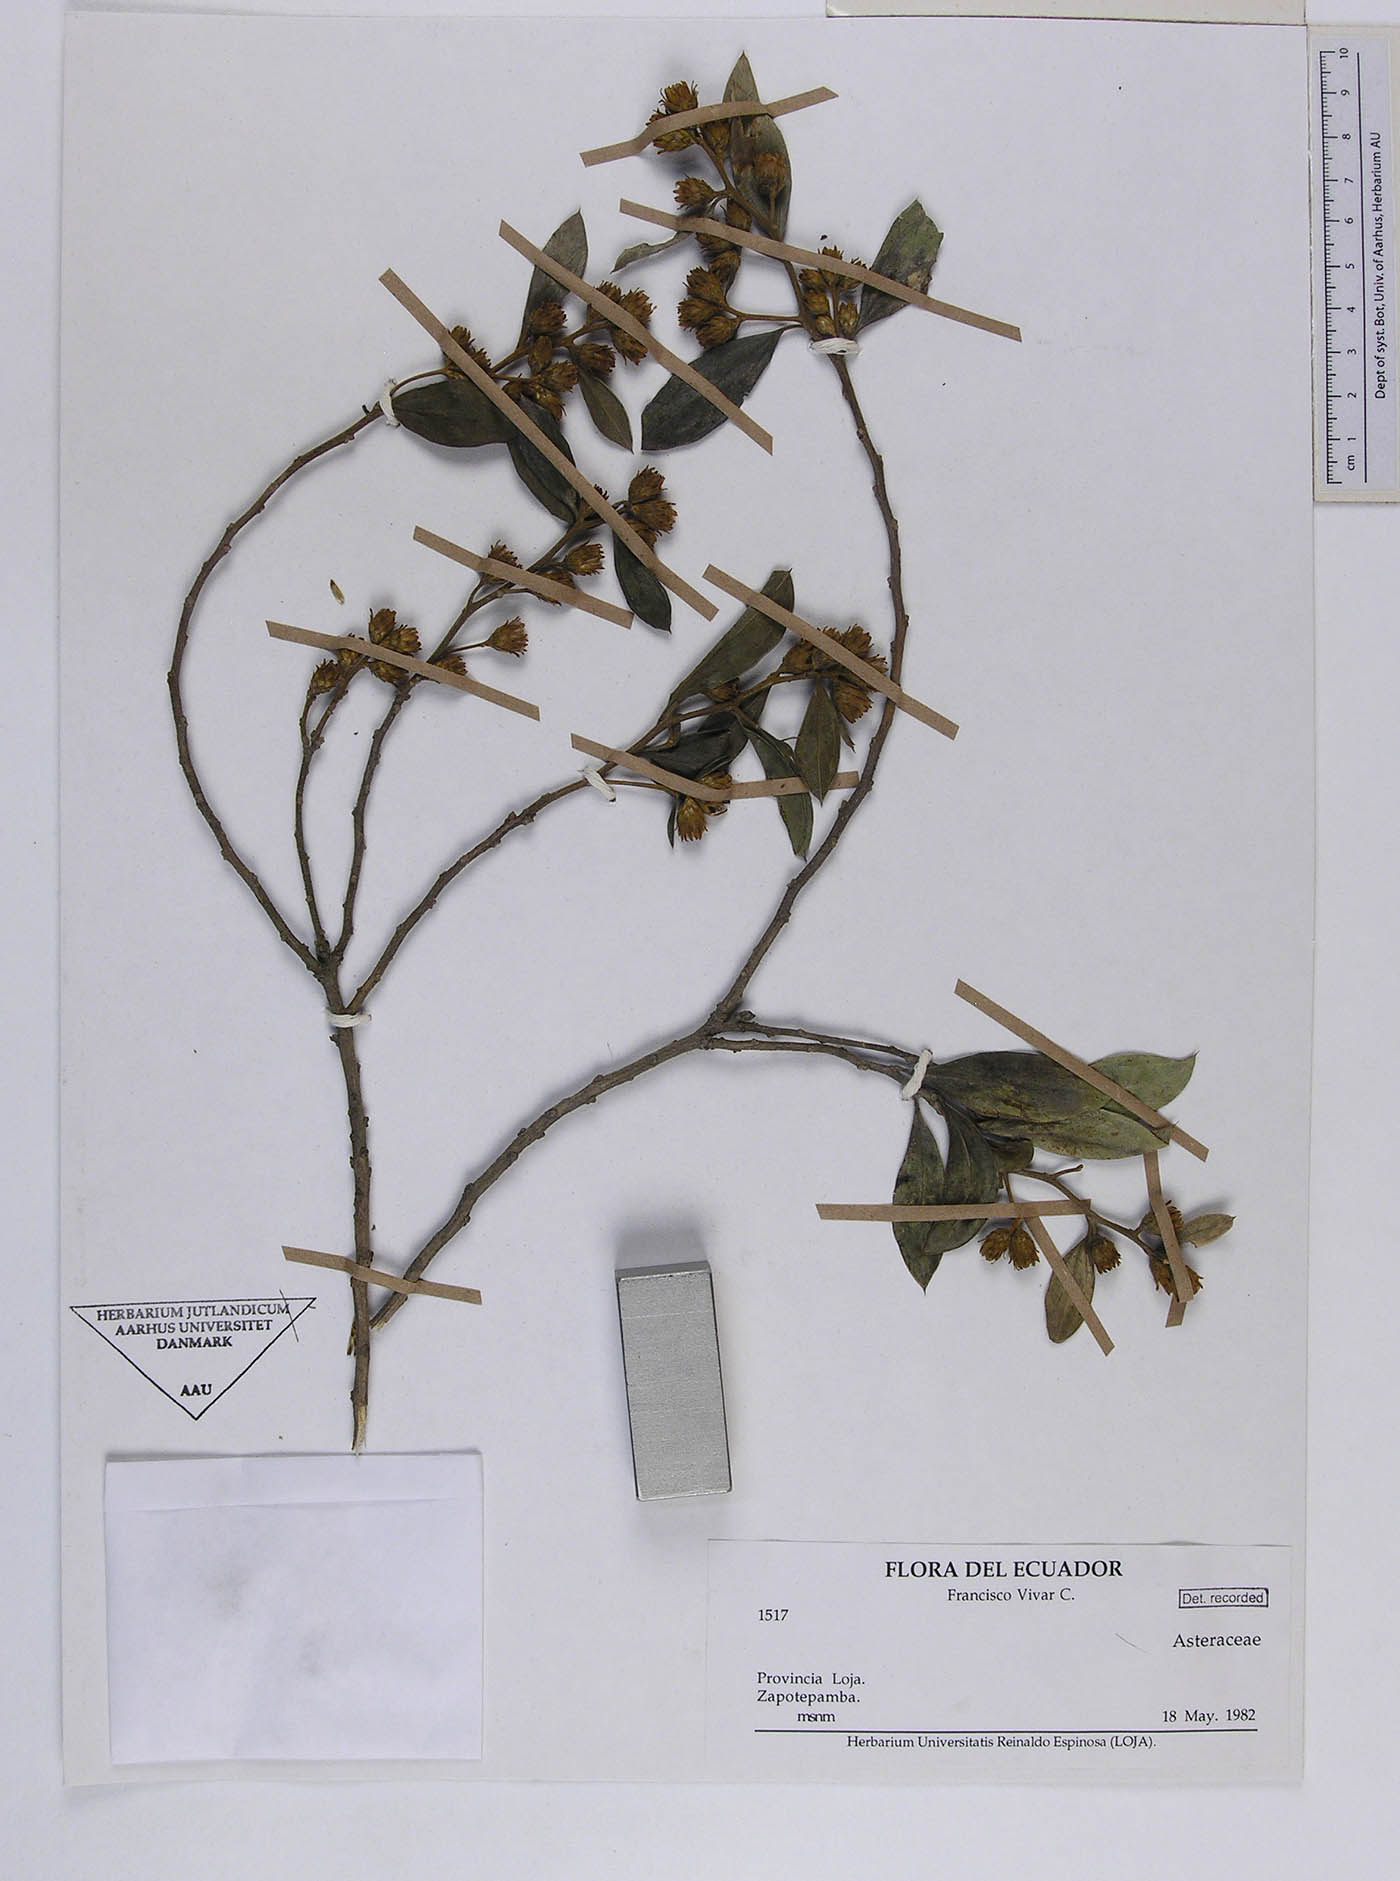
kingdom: Plantae
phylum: Tracheophyta
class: Magnoliopsida
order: Asterales
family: Asteraceae
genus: Dasyphyllum
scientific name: Dasyphyllum weberbaueri
